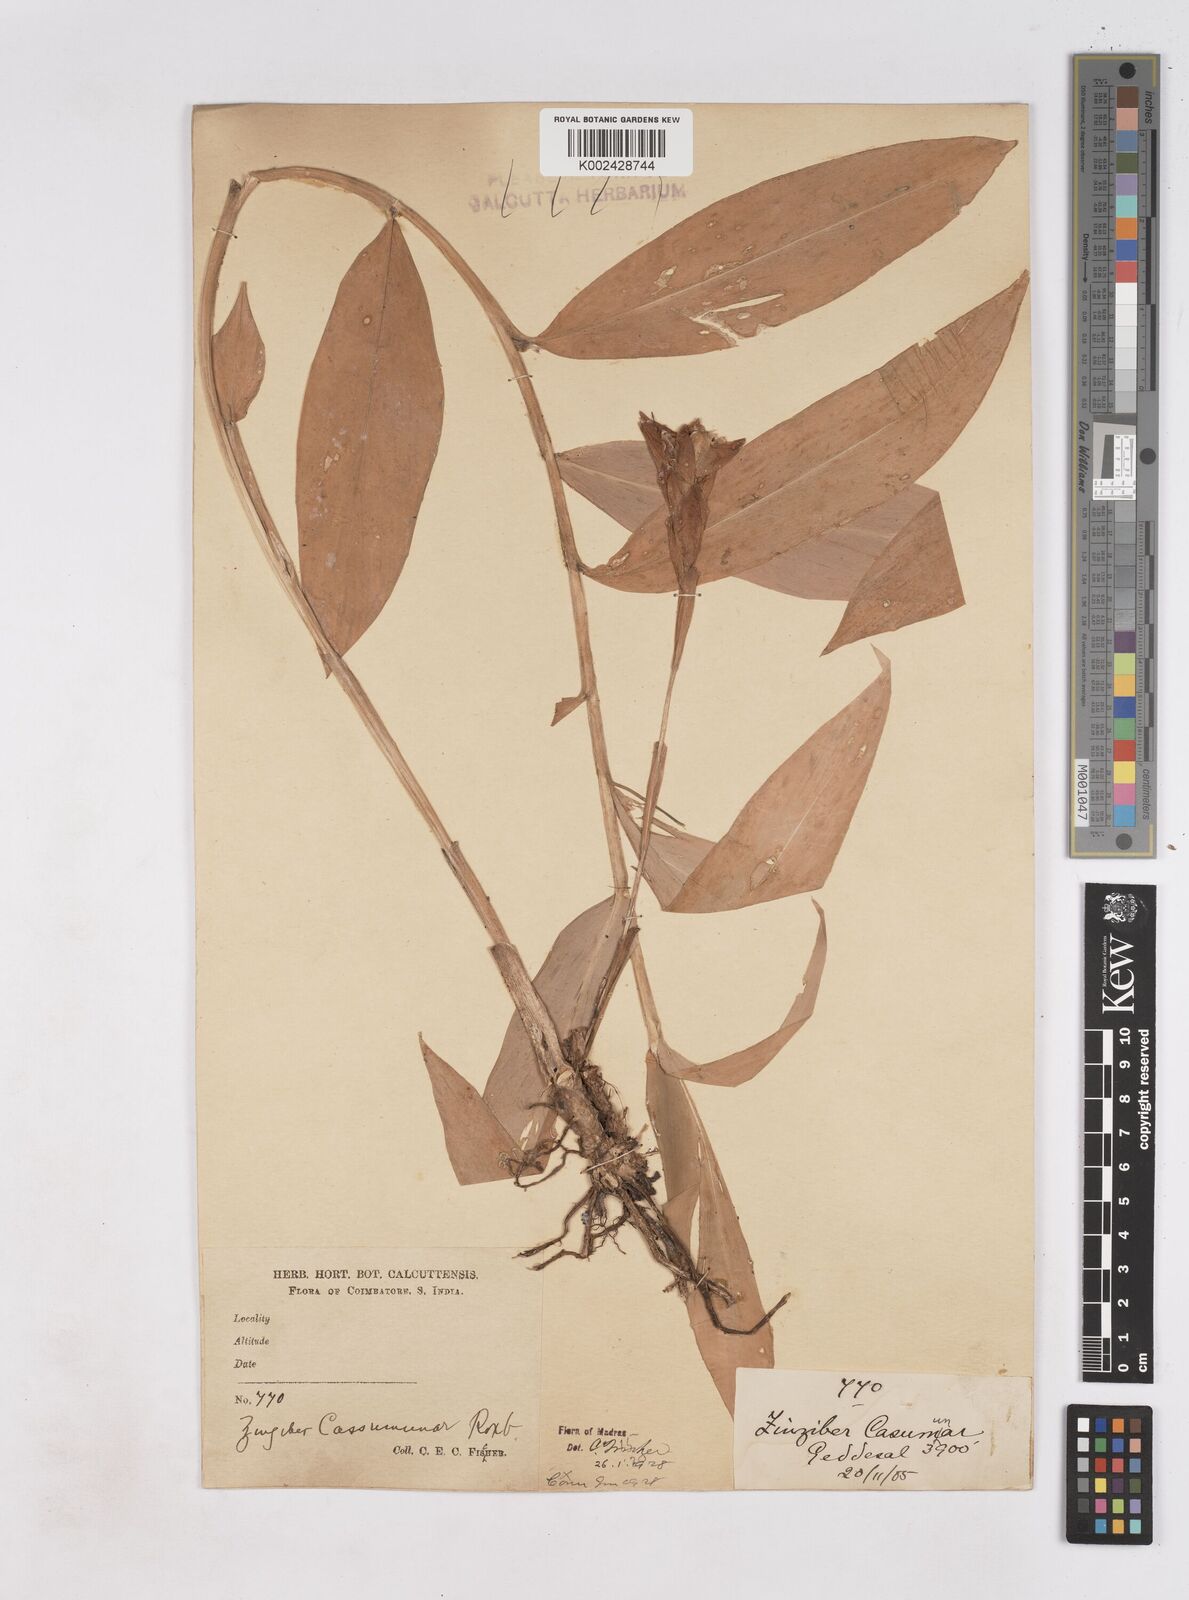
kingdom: Plantae
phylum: Tracheophyta
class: Liliopsida
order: Zingiberales
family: Zingiberaceae
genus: Zingiber
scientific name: Zingiber montanum
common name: Bengal ginger
